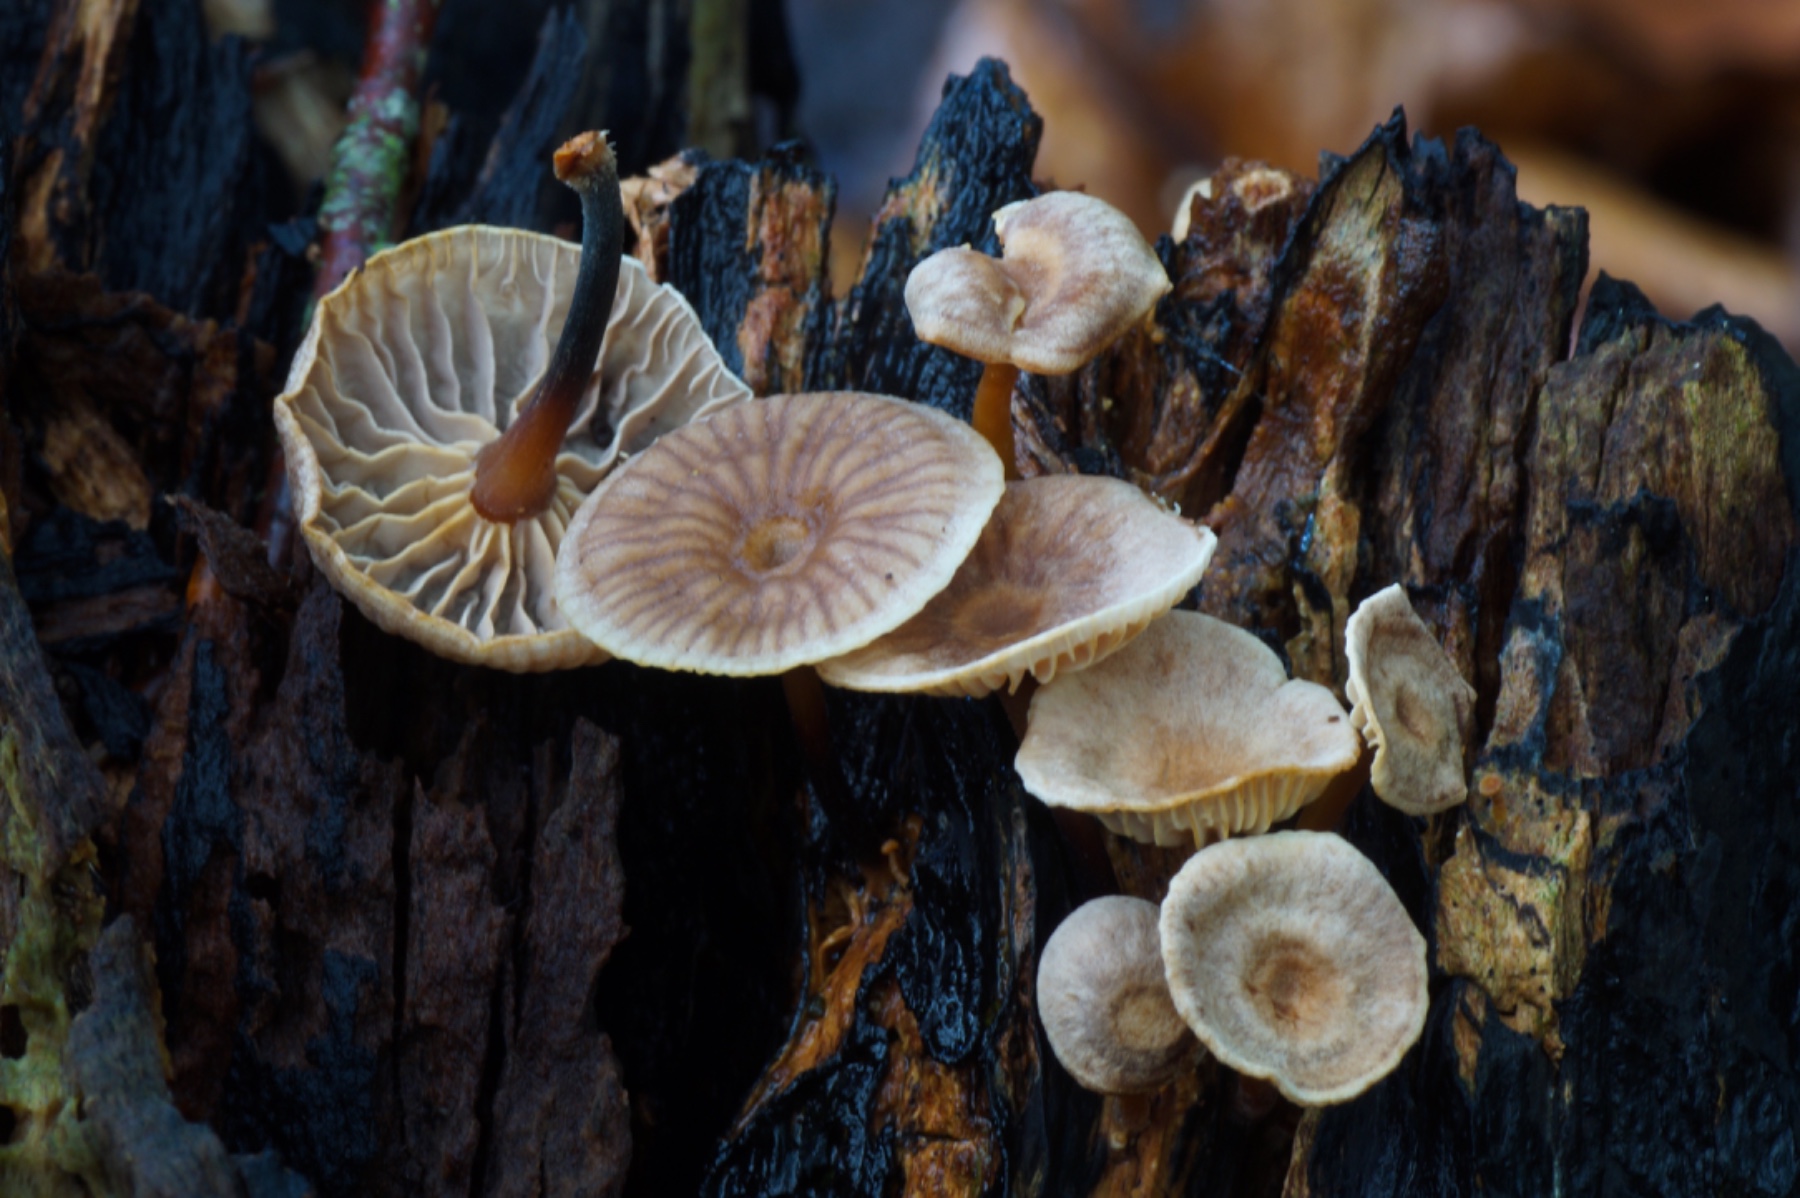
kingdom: Fungi
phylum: Basidiomycota
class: Agaricomycetes
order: Agaricales
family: Omphalotaceae
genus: Gymnopus
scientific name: Gymnopus foetidus
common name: stinkende fladhat
